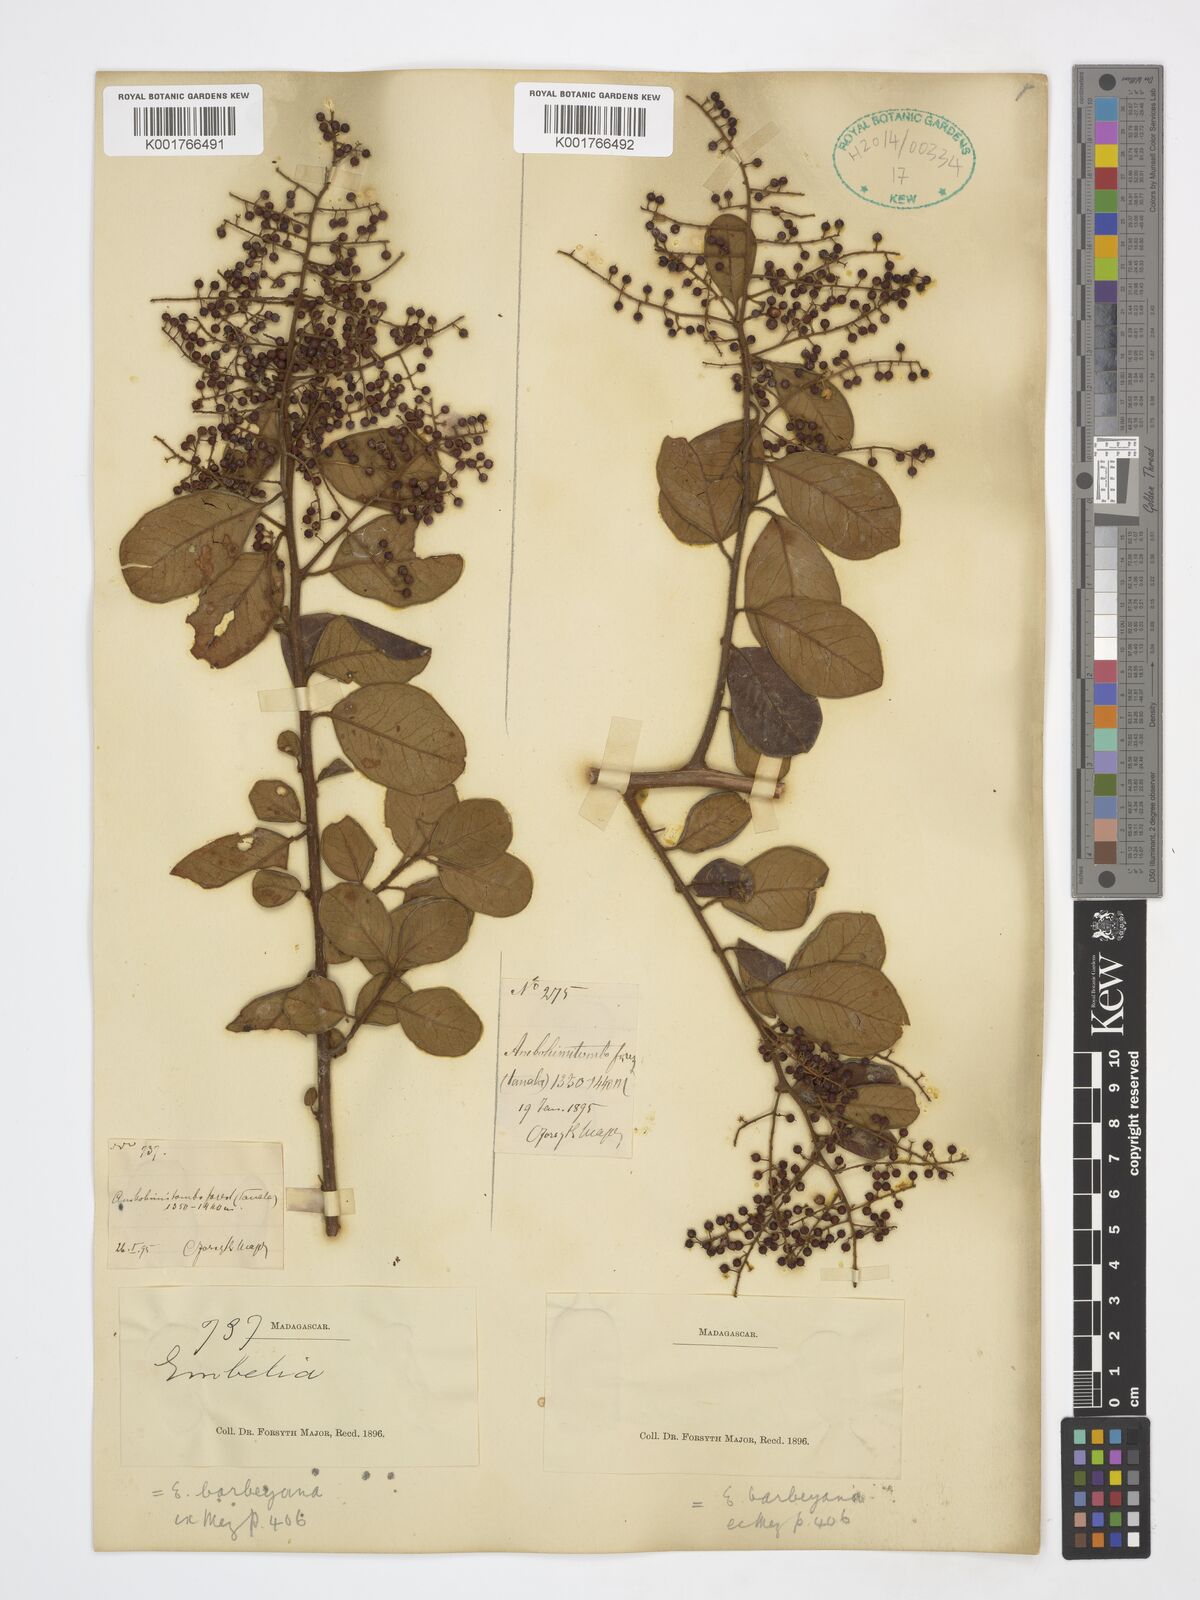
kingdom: Plantae
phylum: Tracheophyta
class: Magnoliopsida
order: Ericales
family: Primulaceae
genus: Embelia
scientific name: Embelia madagascariensis
